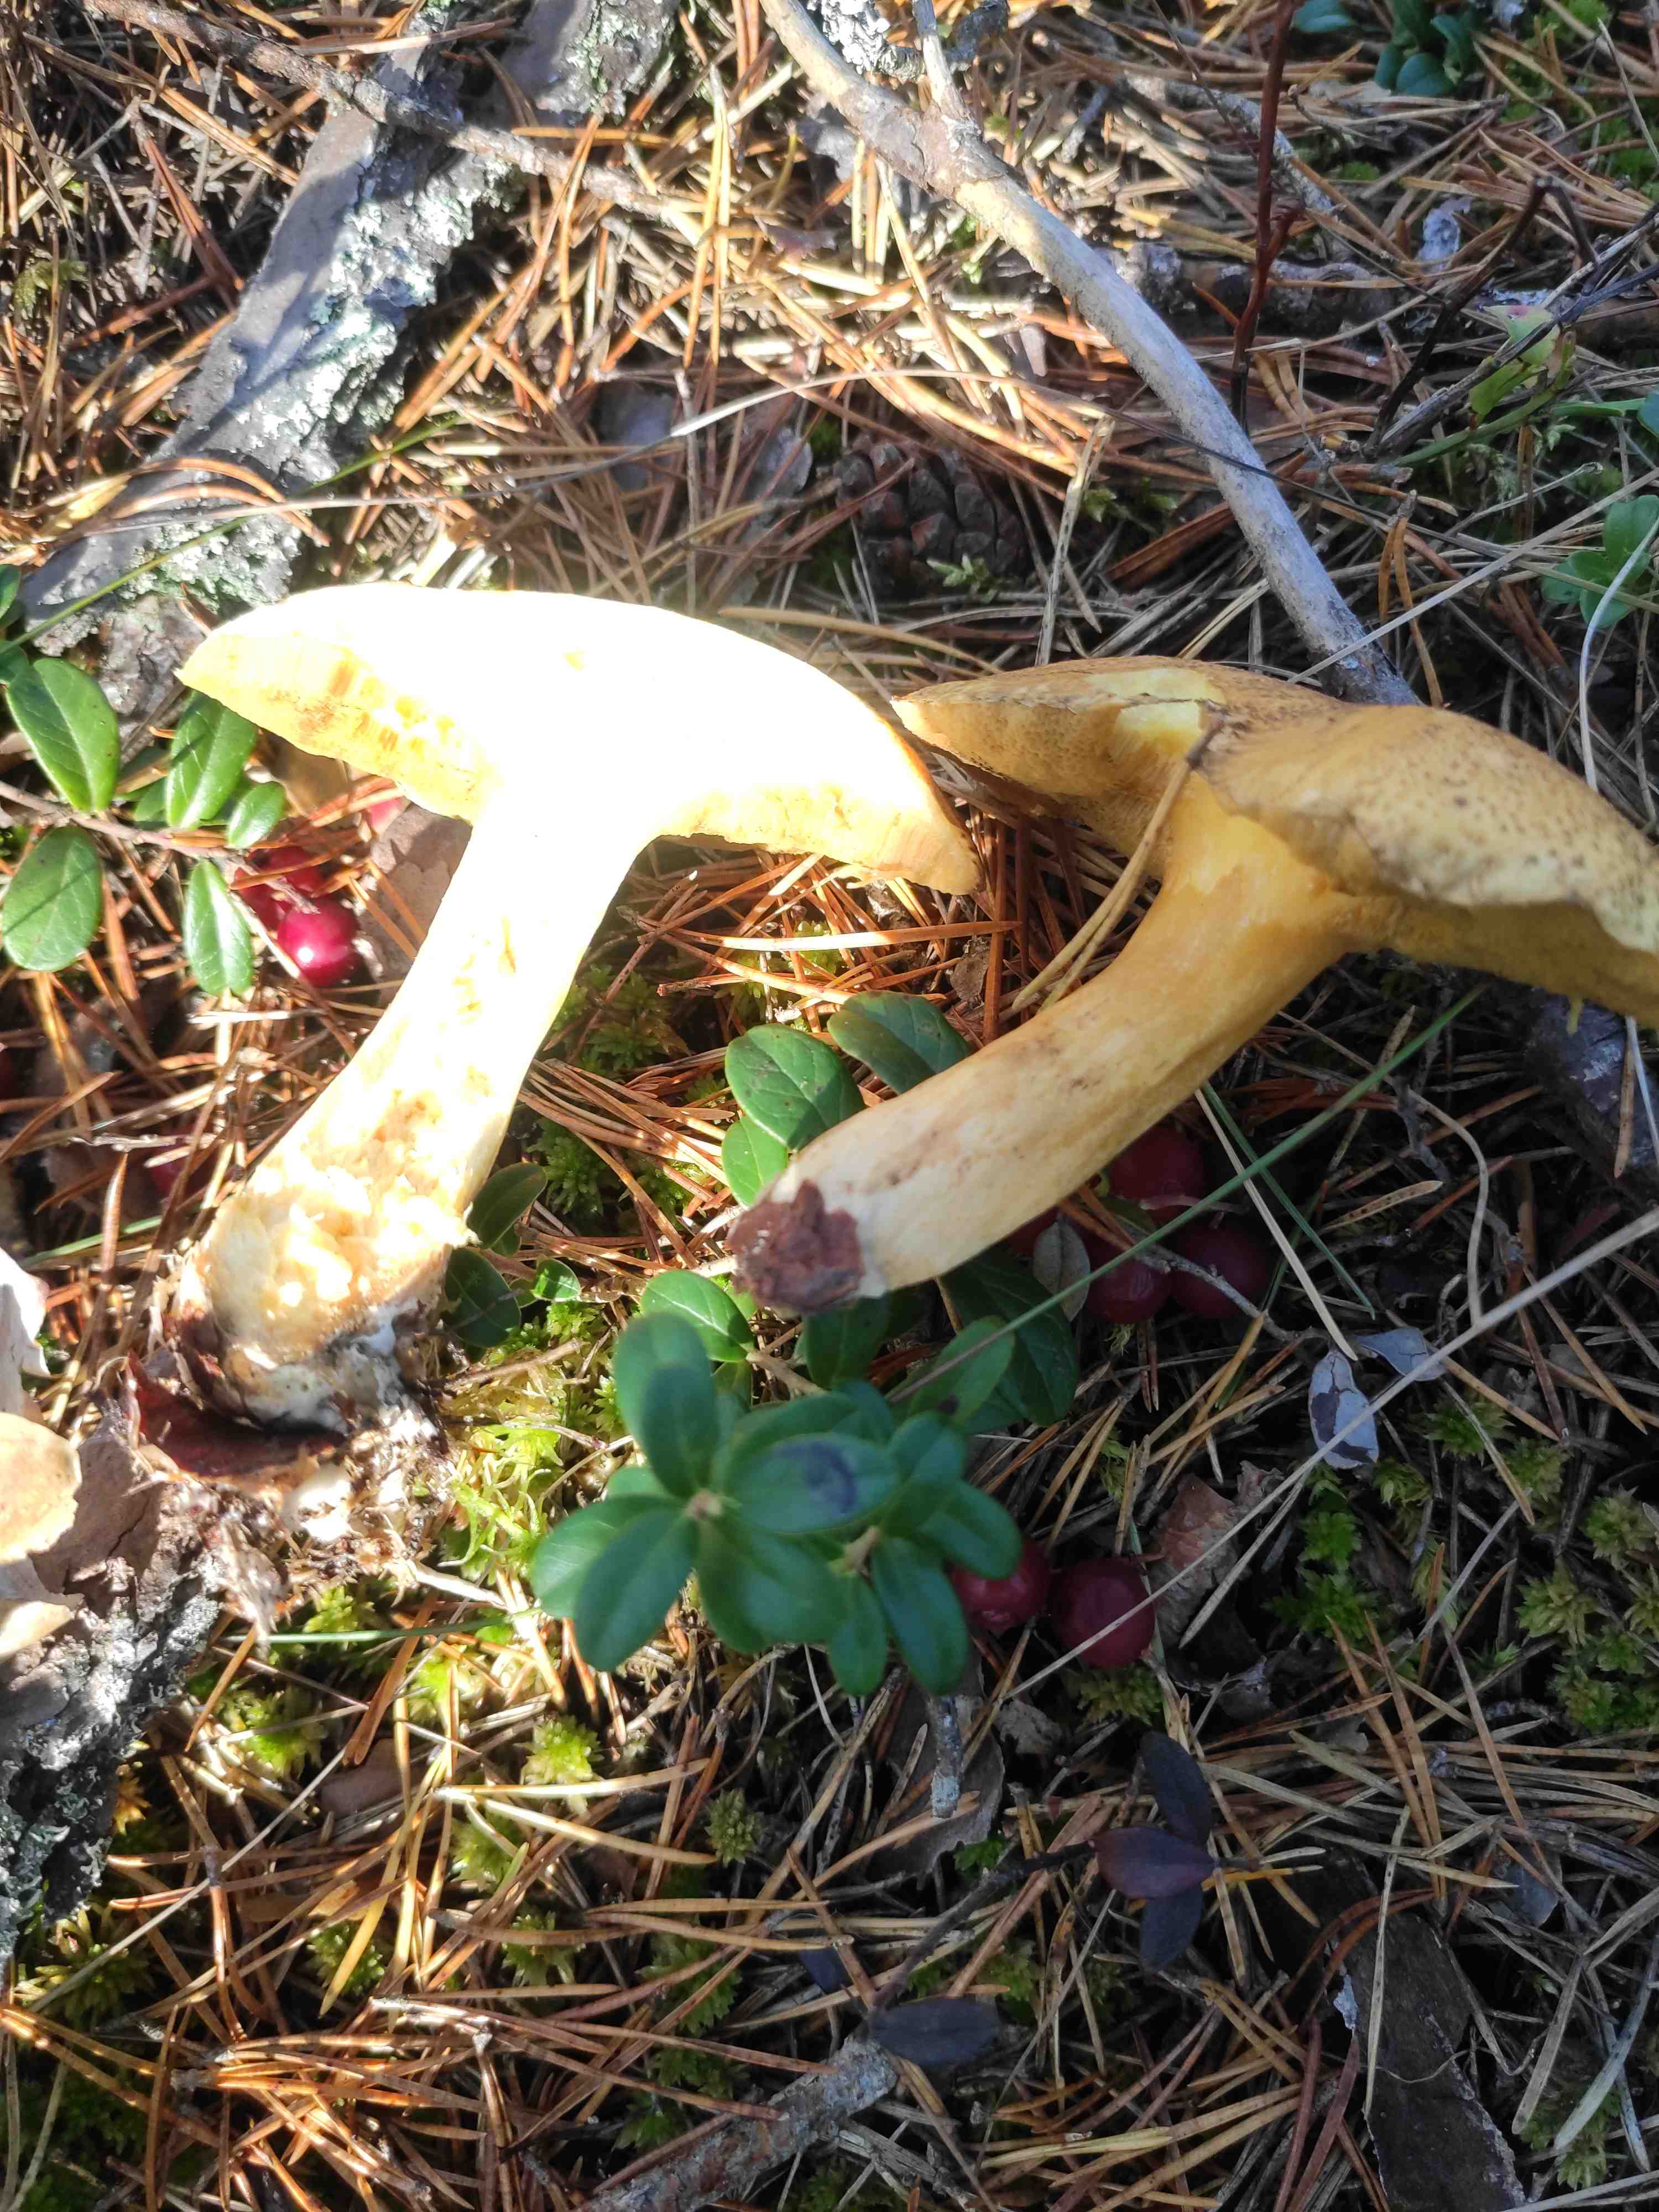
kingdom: Fungi
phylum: Basidiomycota
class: Agaricomycetes
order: Boletales
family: Suillaceae
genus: Suillus
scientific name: Suillus variegatus
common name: broget slimrørhat
